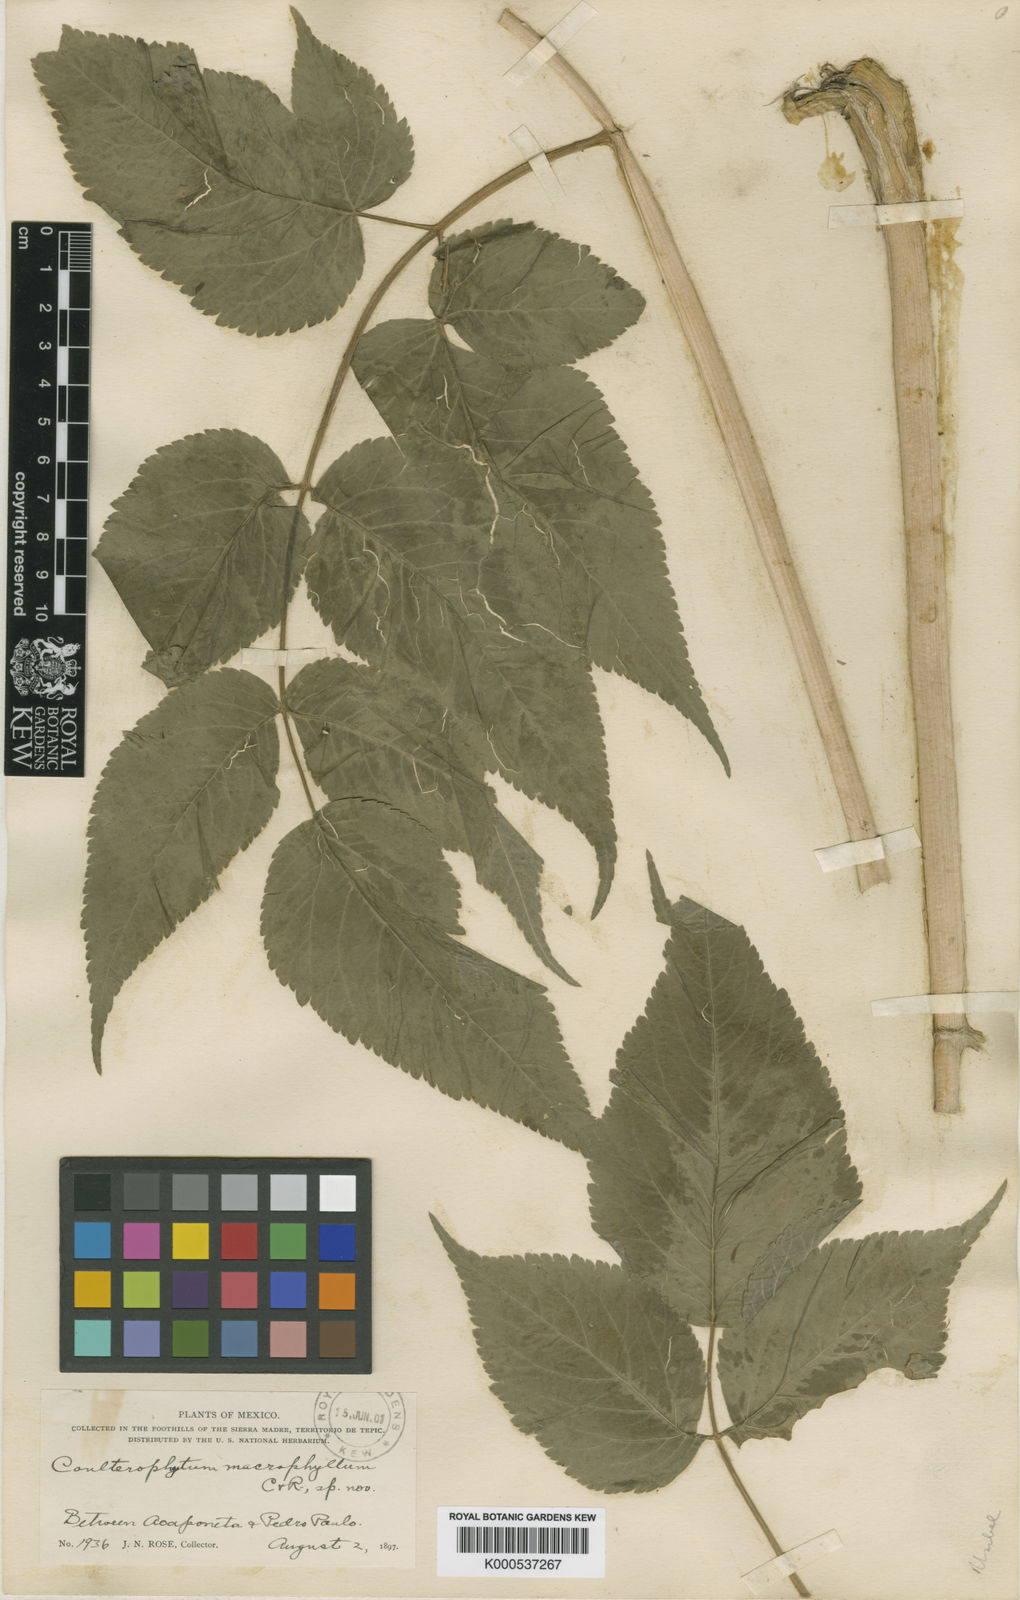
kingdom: Plantae
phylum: Tracheophyta
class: Magnoliopsida
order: Apiales
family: Apiaceae
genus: Coulterophytum
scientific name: Coulterophytum macrophyllum
